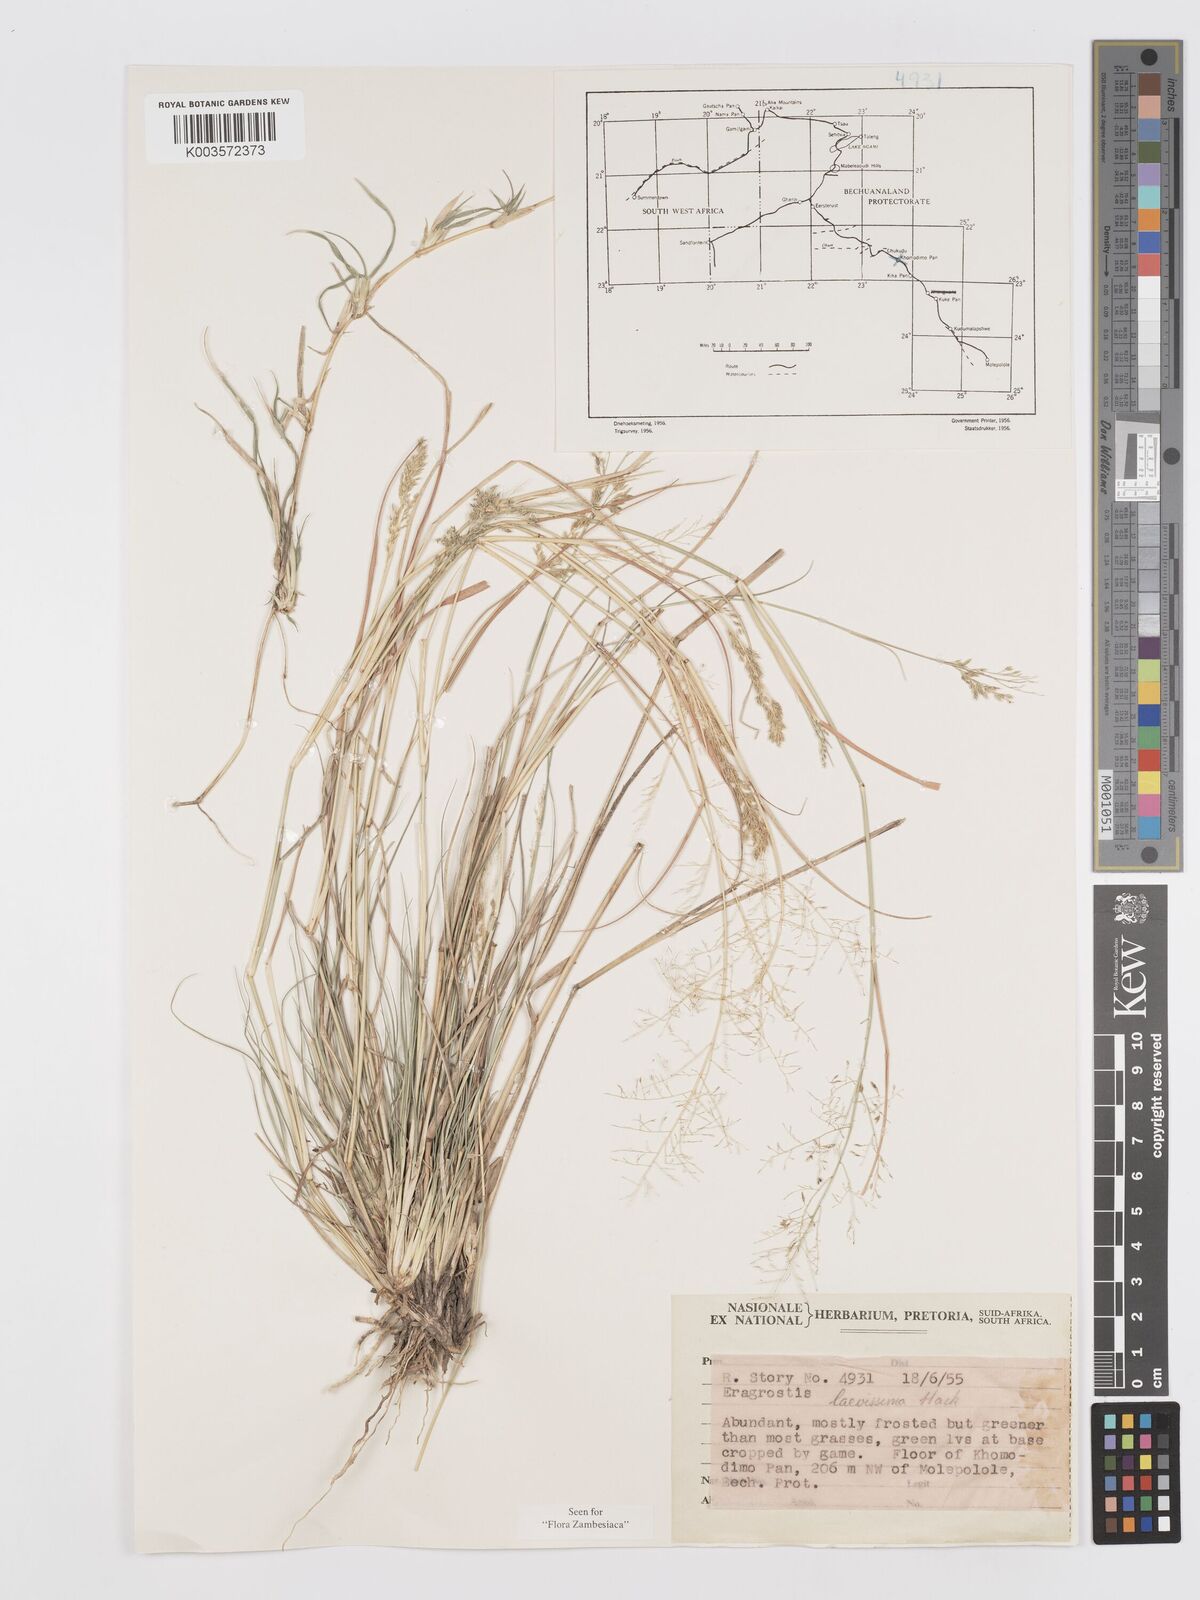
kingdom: Plantae
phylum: Tracheophyta
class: Liliopsida
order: Poales
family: Poaceae
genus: Eragrostis
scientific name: Eragrostis laevissima
